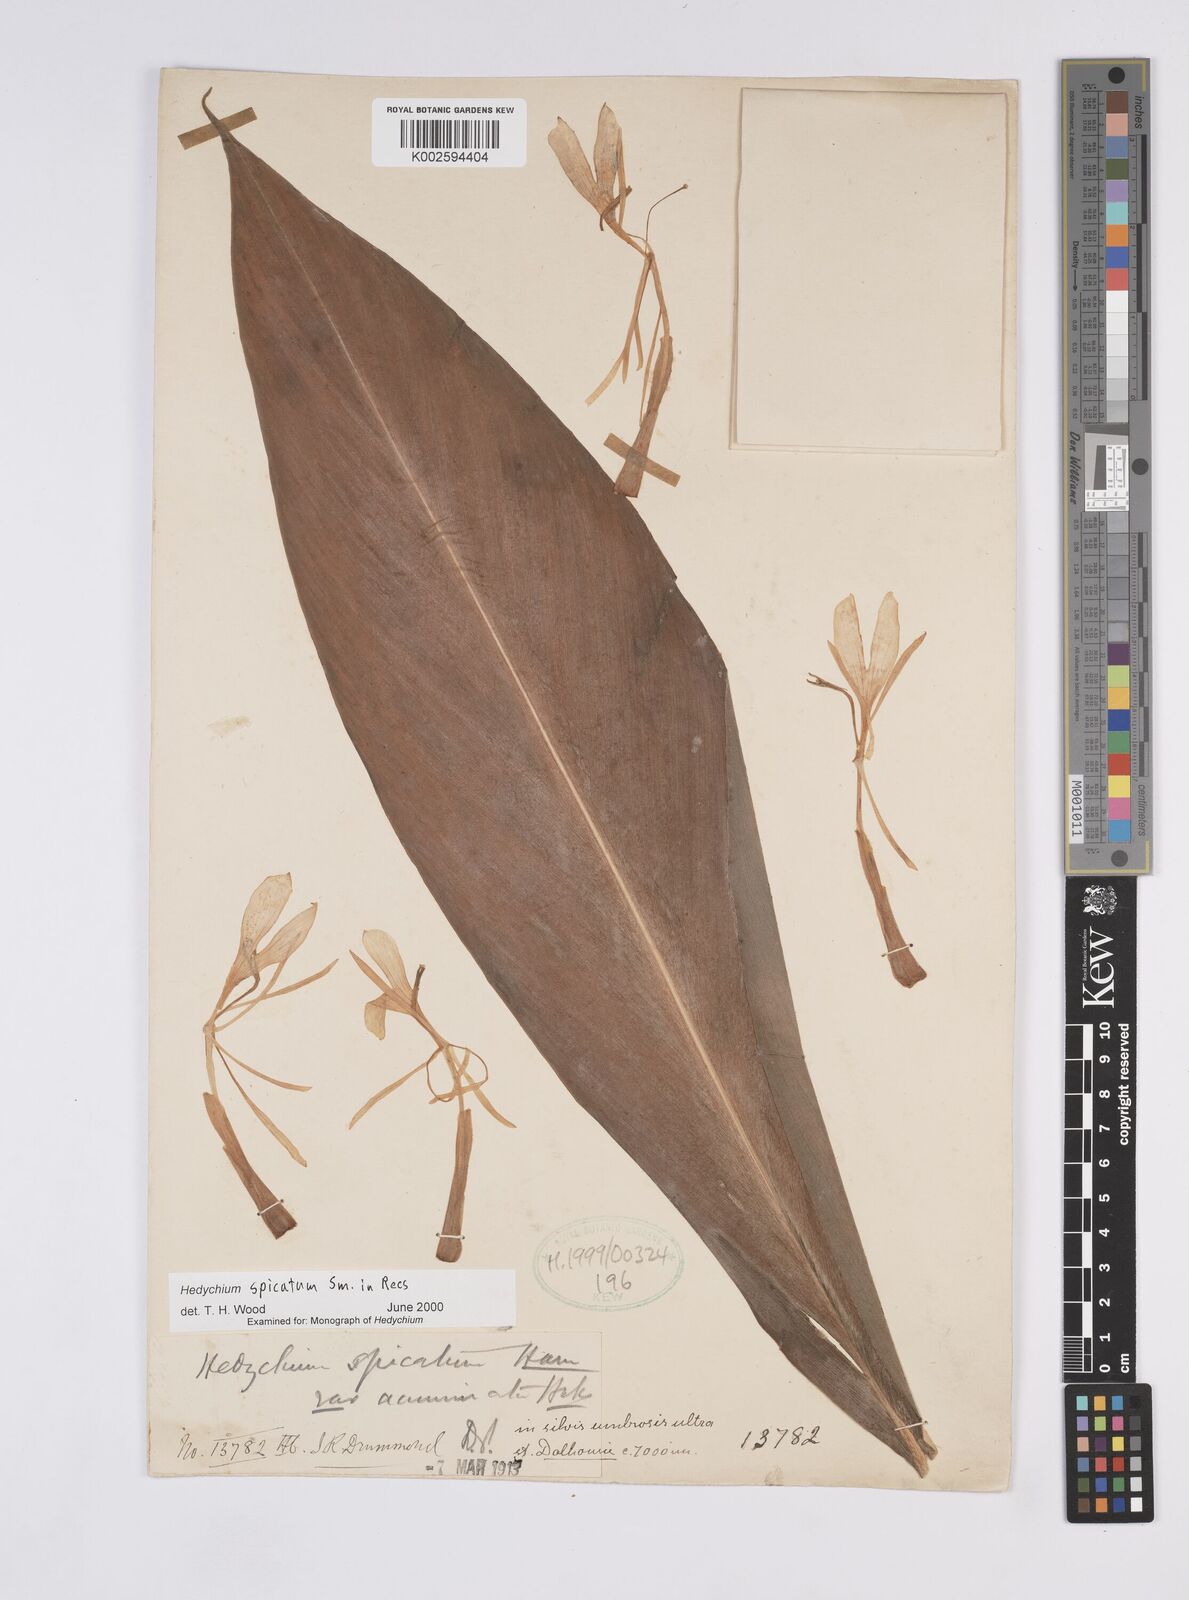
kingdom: Plantae
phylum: Tracheophyta
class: Liliopsida
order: Zingiberales
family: Zingiberaceae
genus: Hedychium
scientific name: Hedychium spicatum
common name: Spiked ginger-lily
